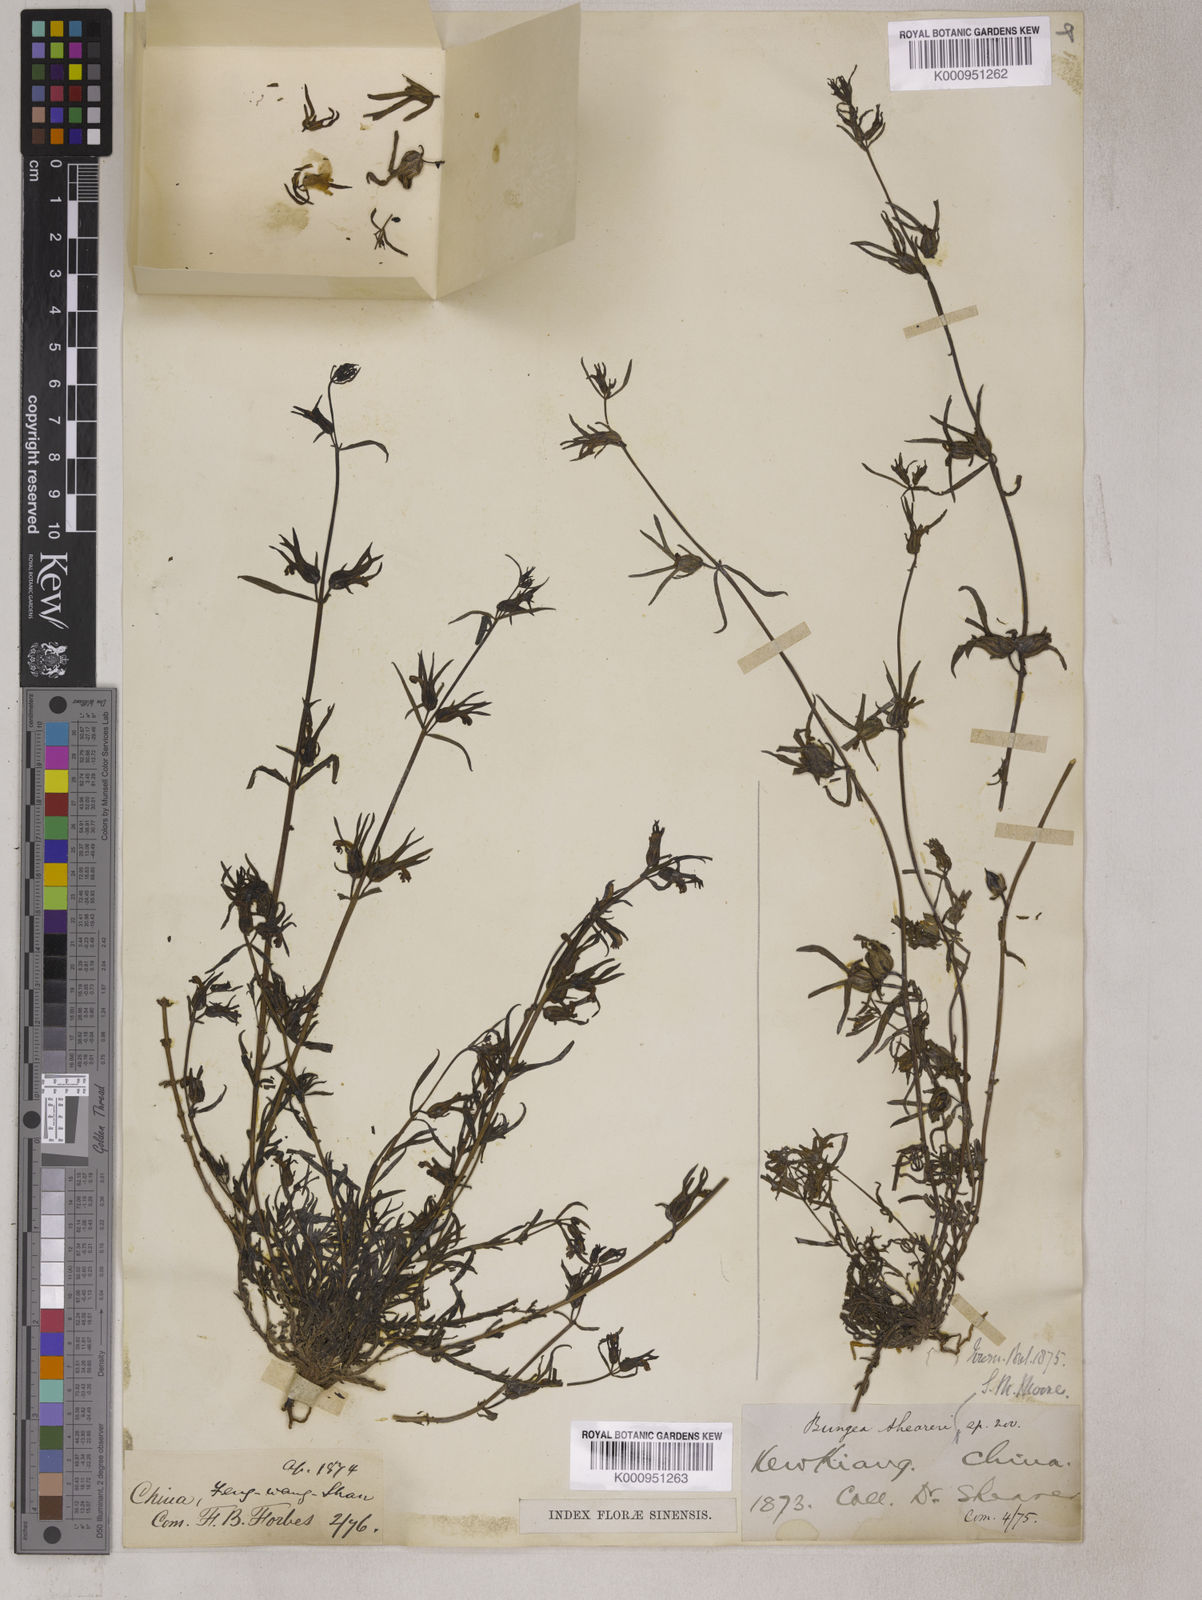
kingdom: Plantae
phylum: Tracheophyta
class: Magnoliopsida
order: Lamiales
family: Orobanchaceae
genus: Monochasma
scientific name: Monochasma sheareri
